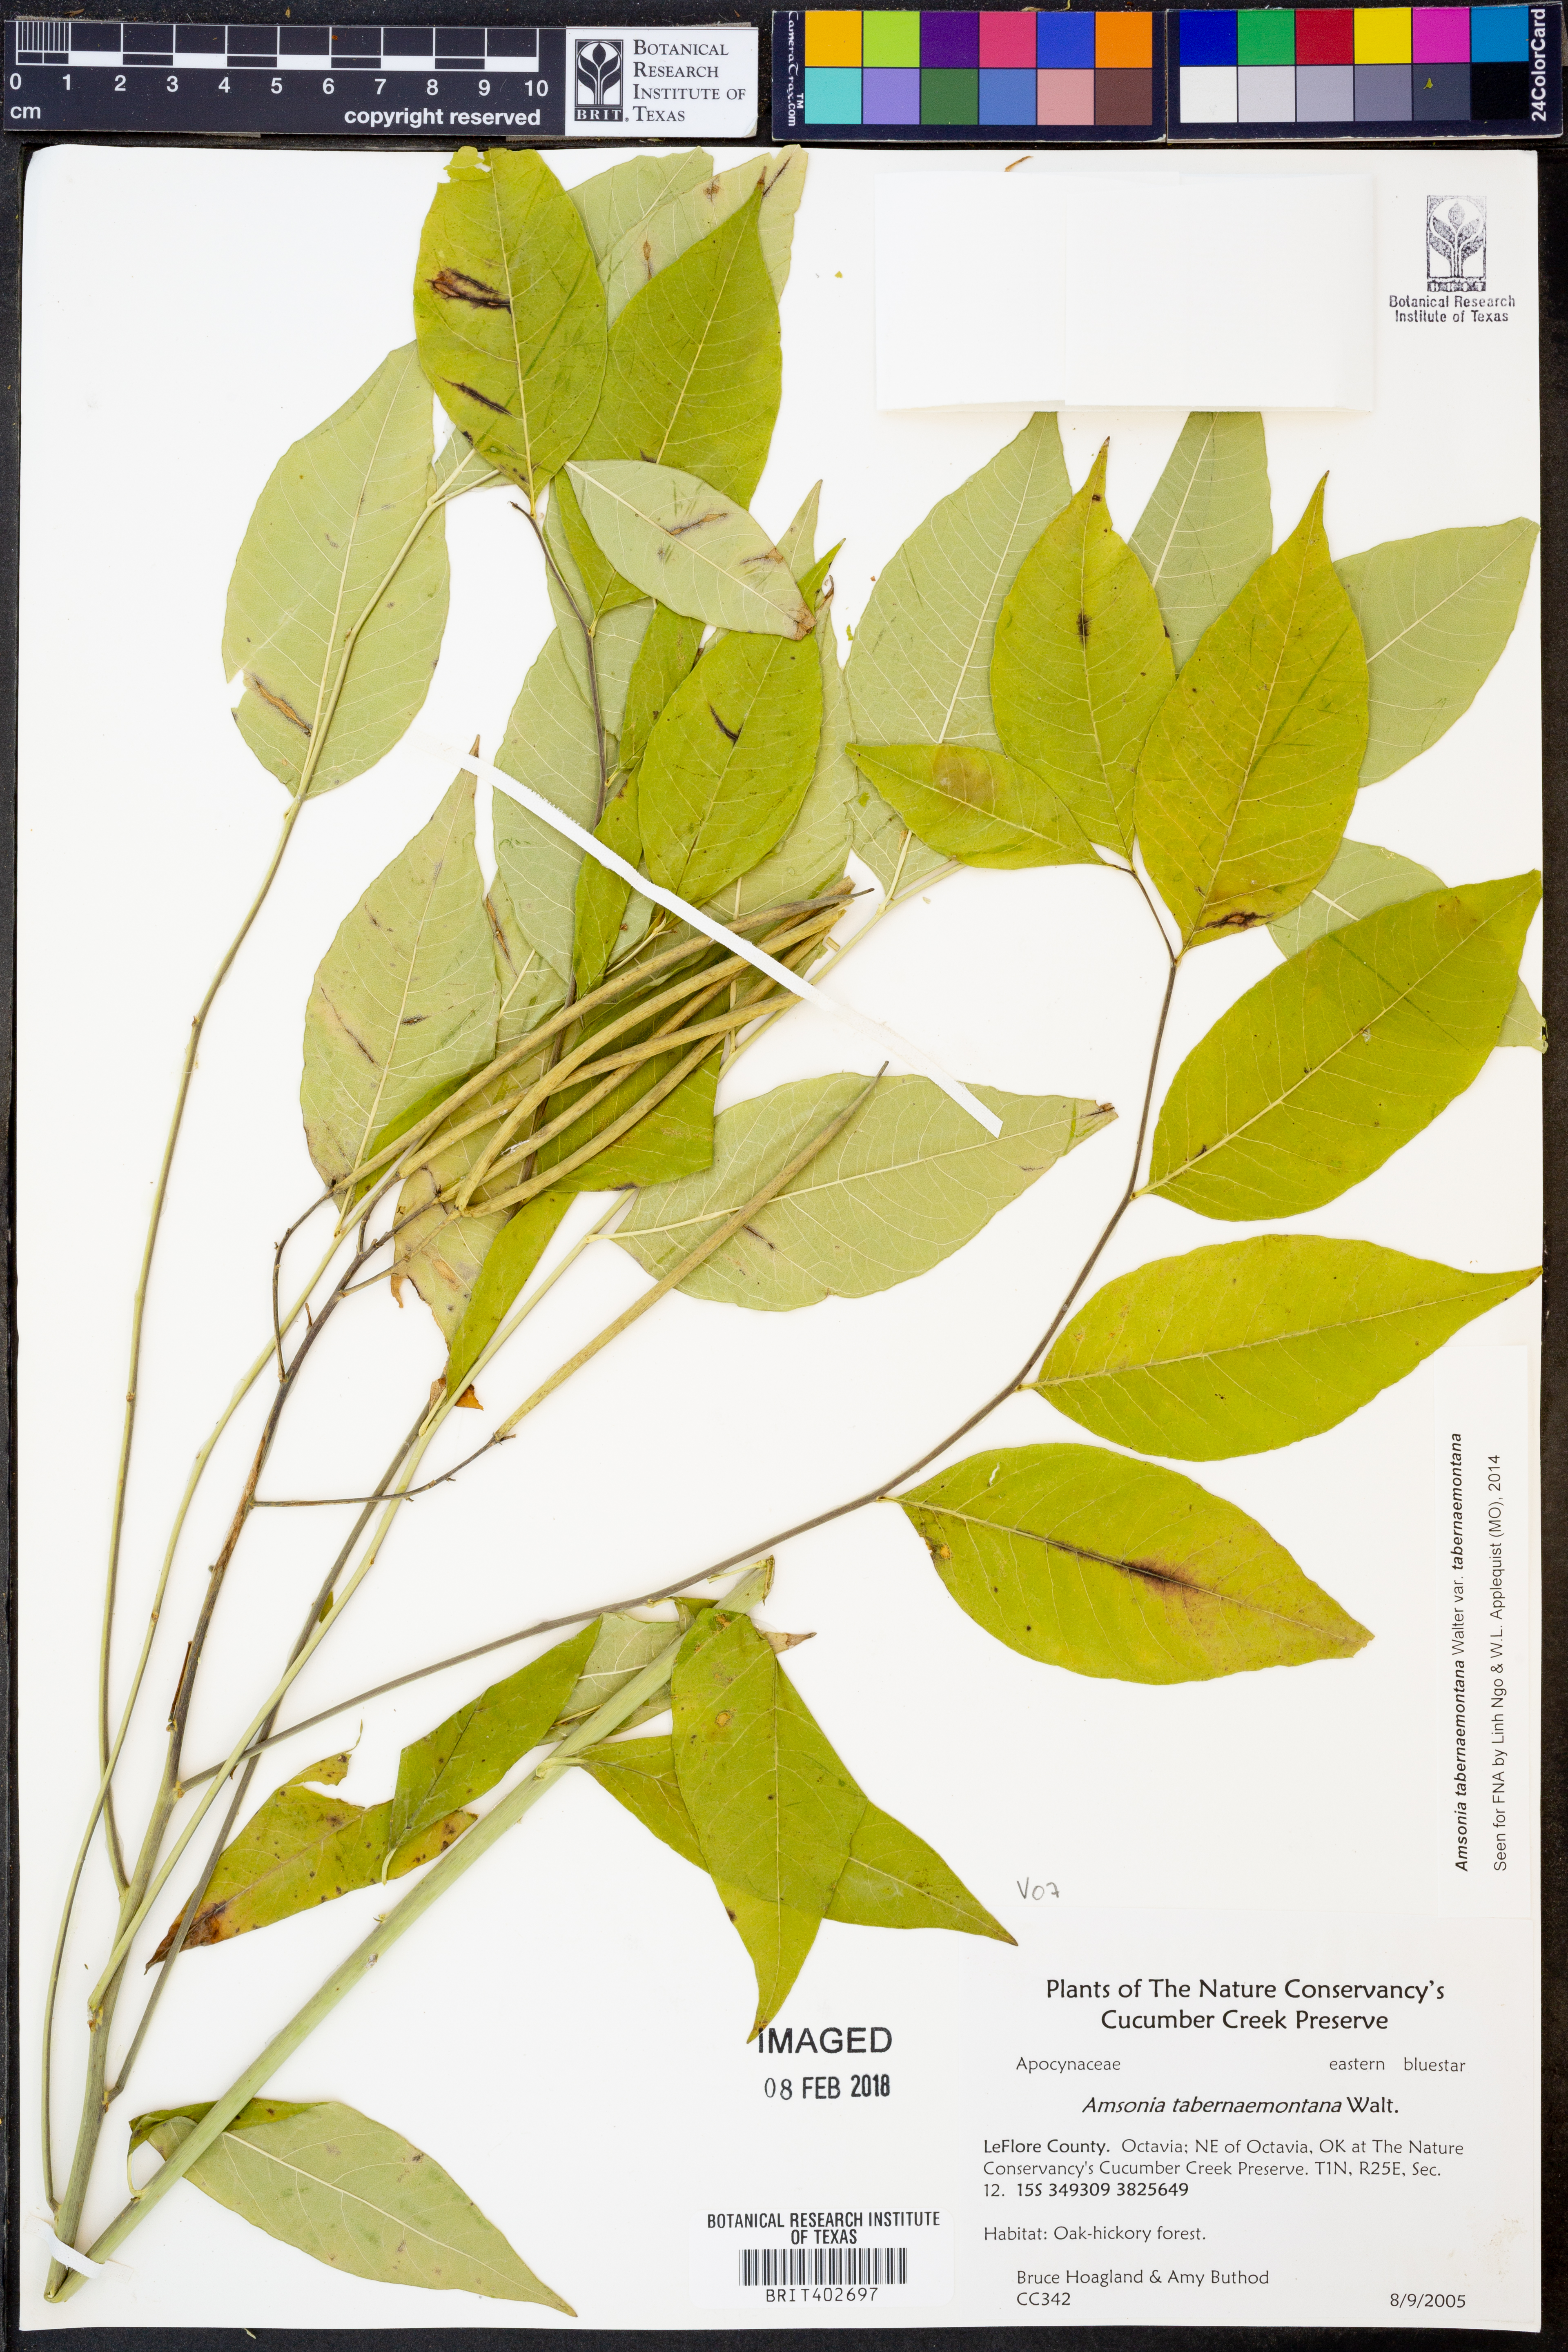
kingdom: Plantae
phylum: Tracheophyta
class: Magnoliopsida
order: Gentianales
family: Apocynaceae
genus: Amsonia
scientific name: Amsonia tabernaemontana
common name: Texas-star
